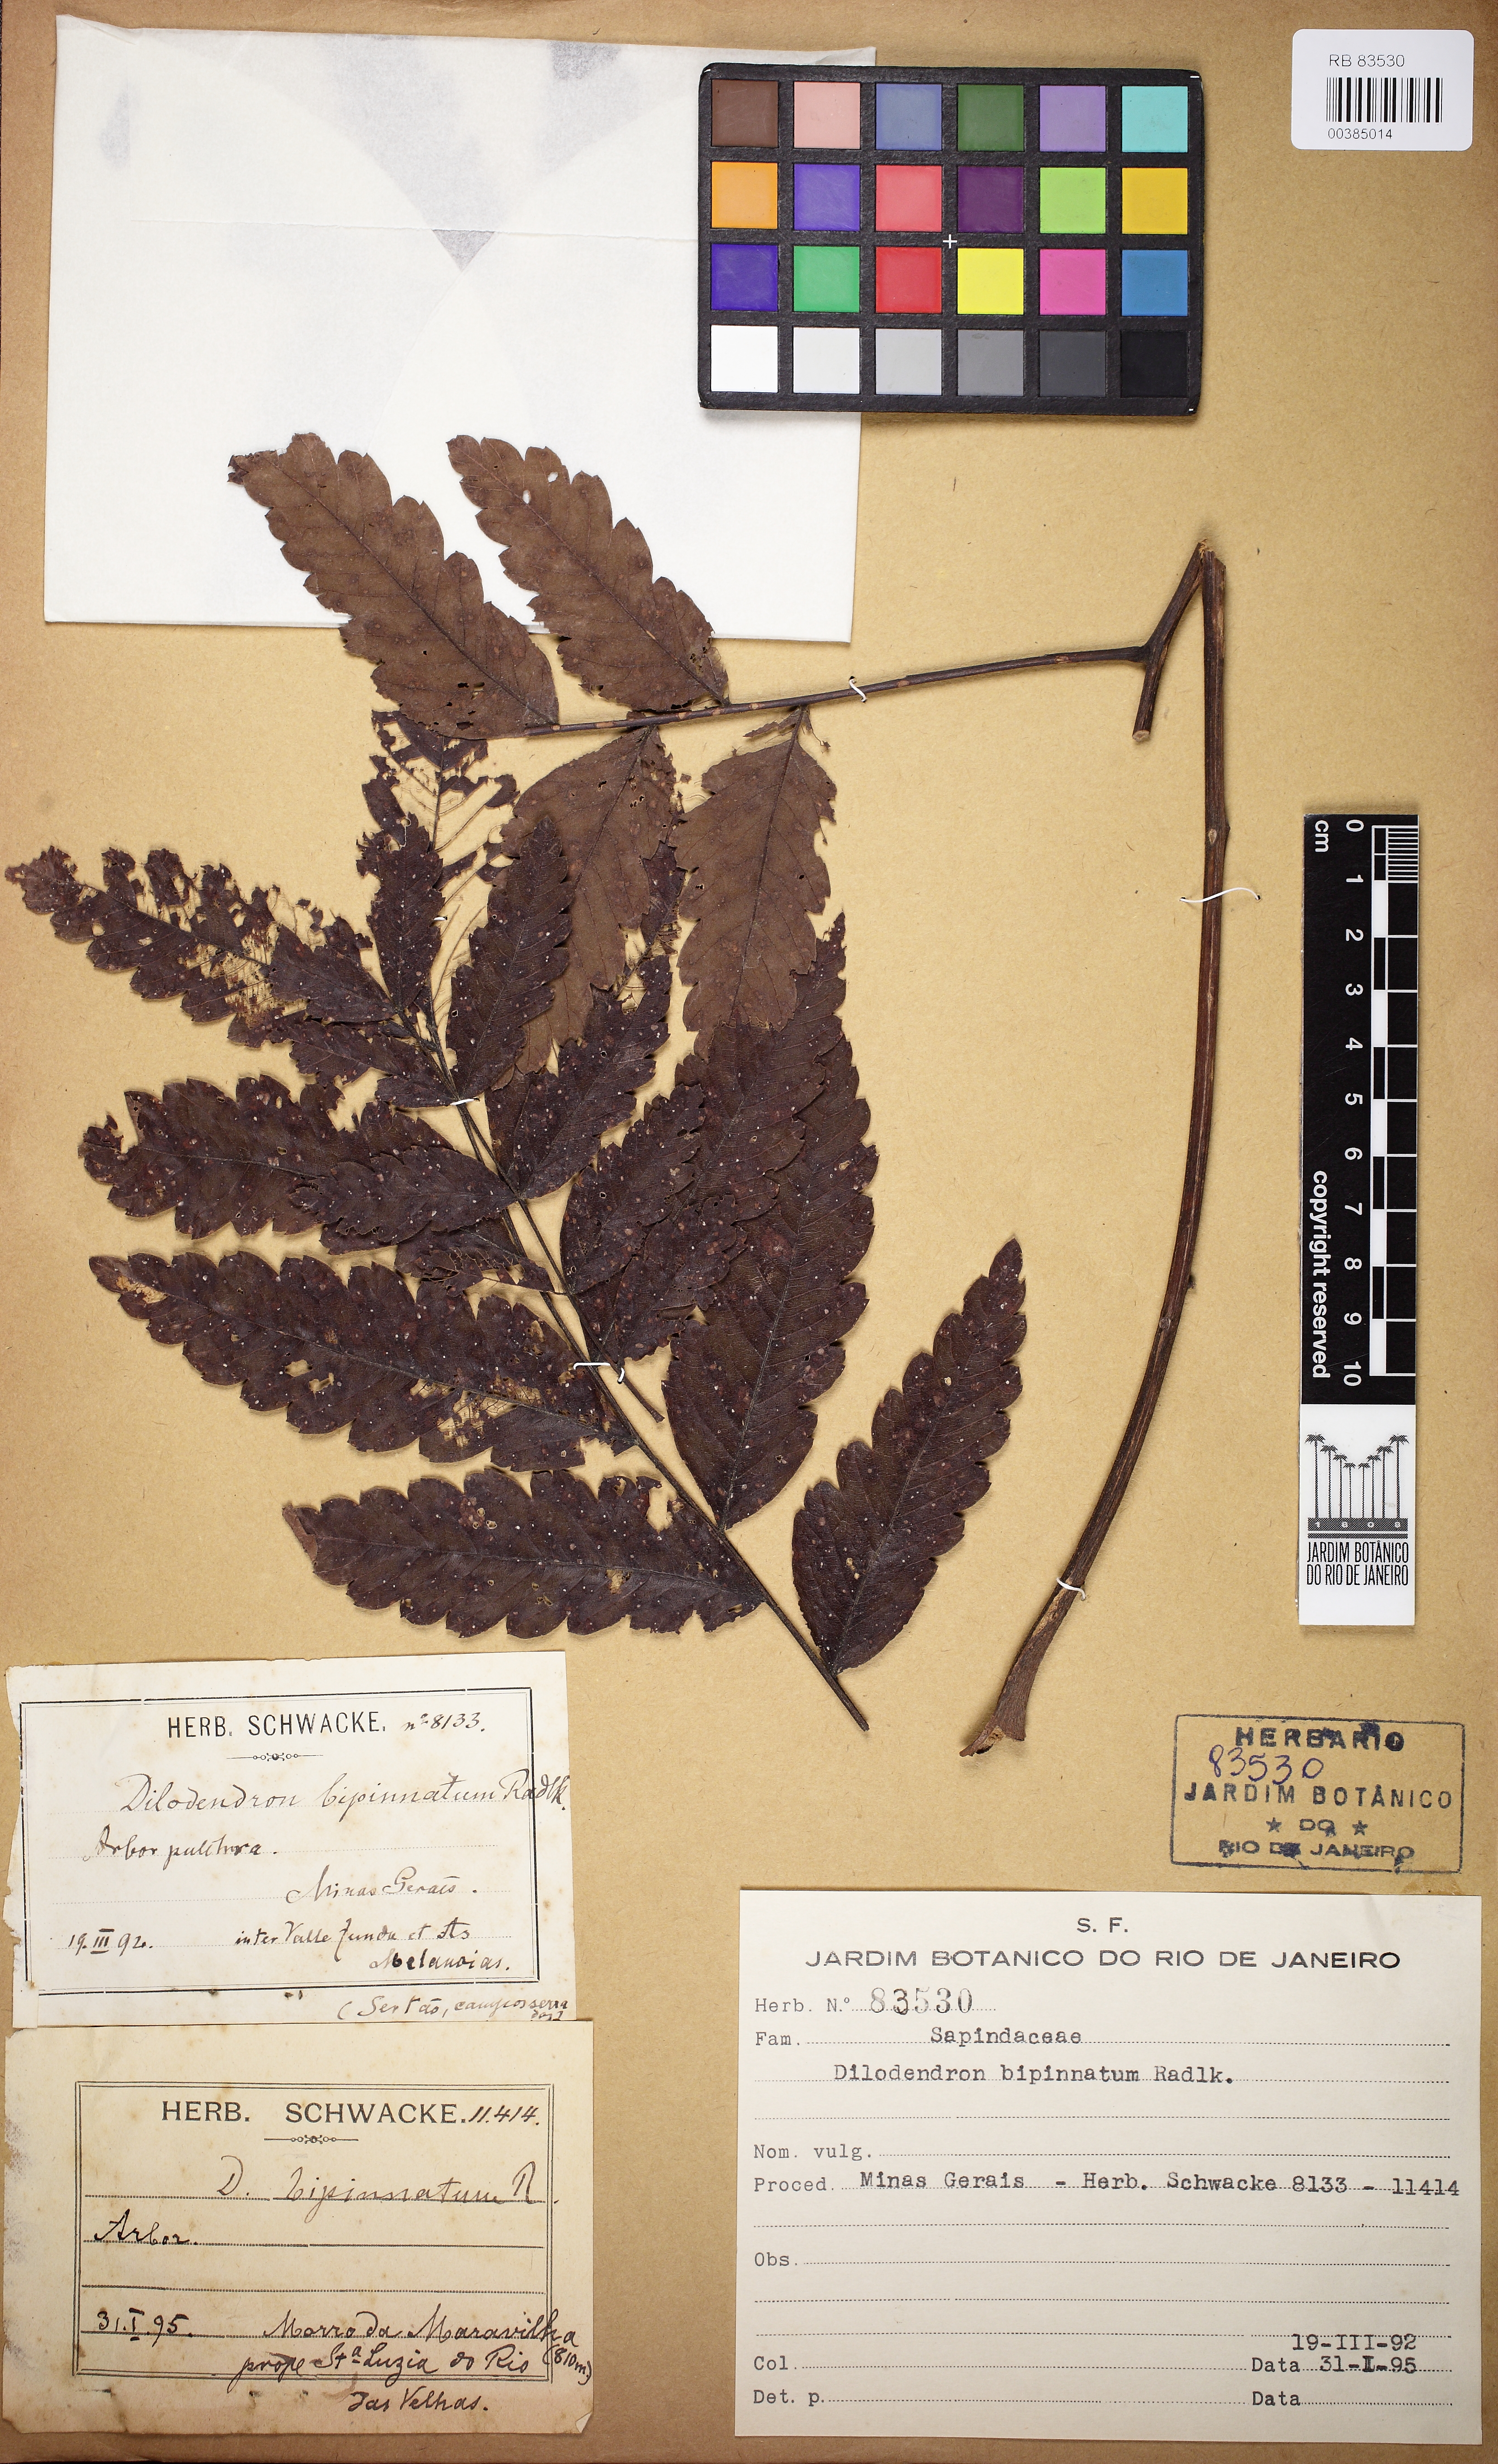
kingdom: Plantae
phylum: Tracheophyta
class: Magnoliopsida
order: Sapindales
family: Sapindaceae
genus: Dilodendron
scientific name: Dilodendron bipinnatum
